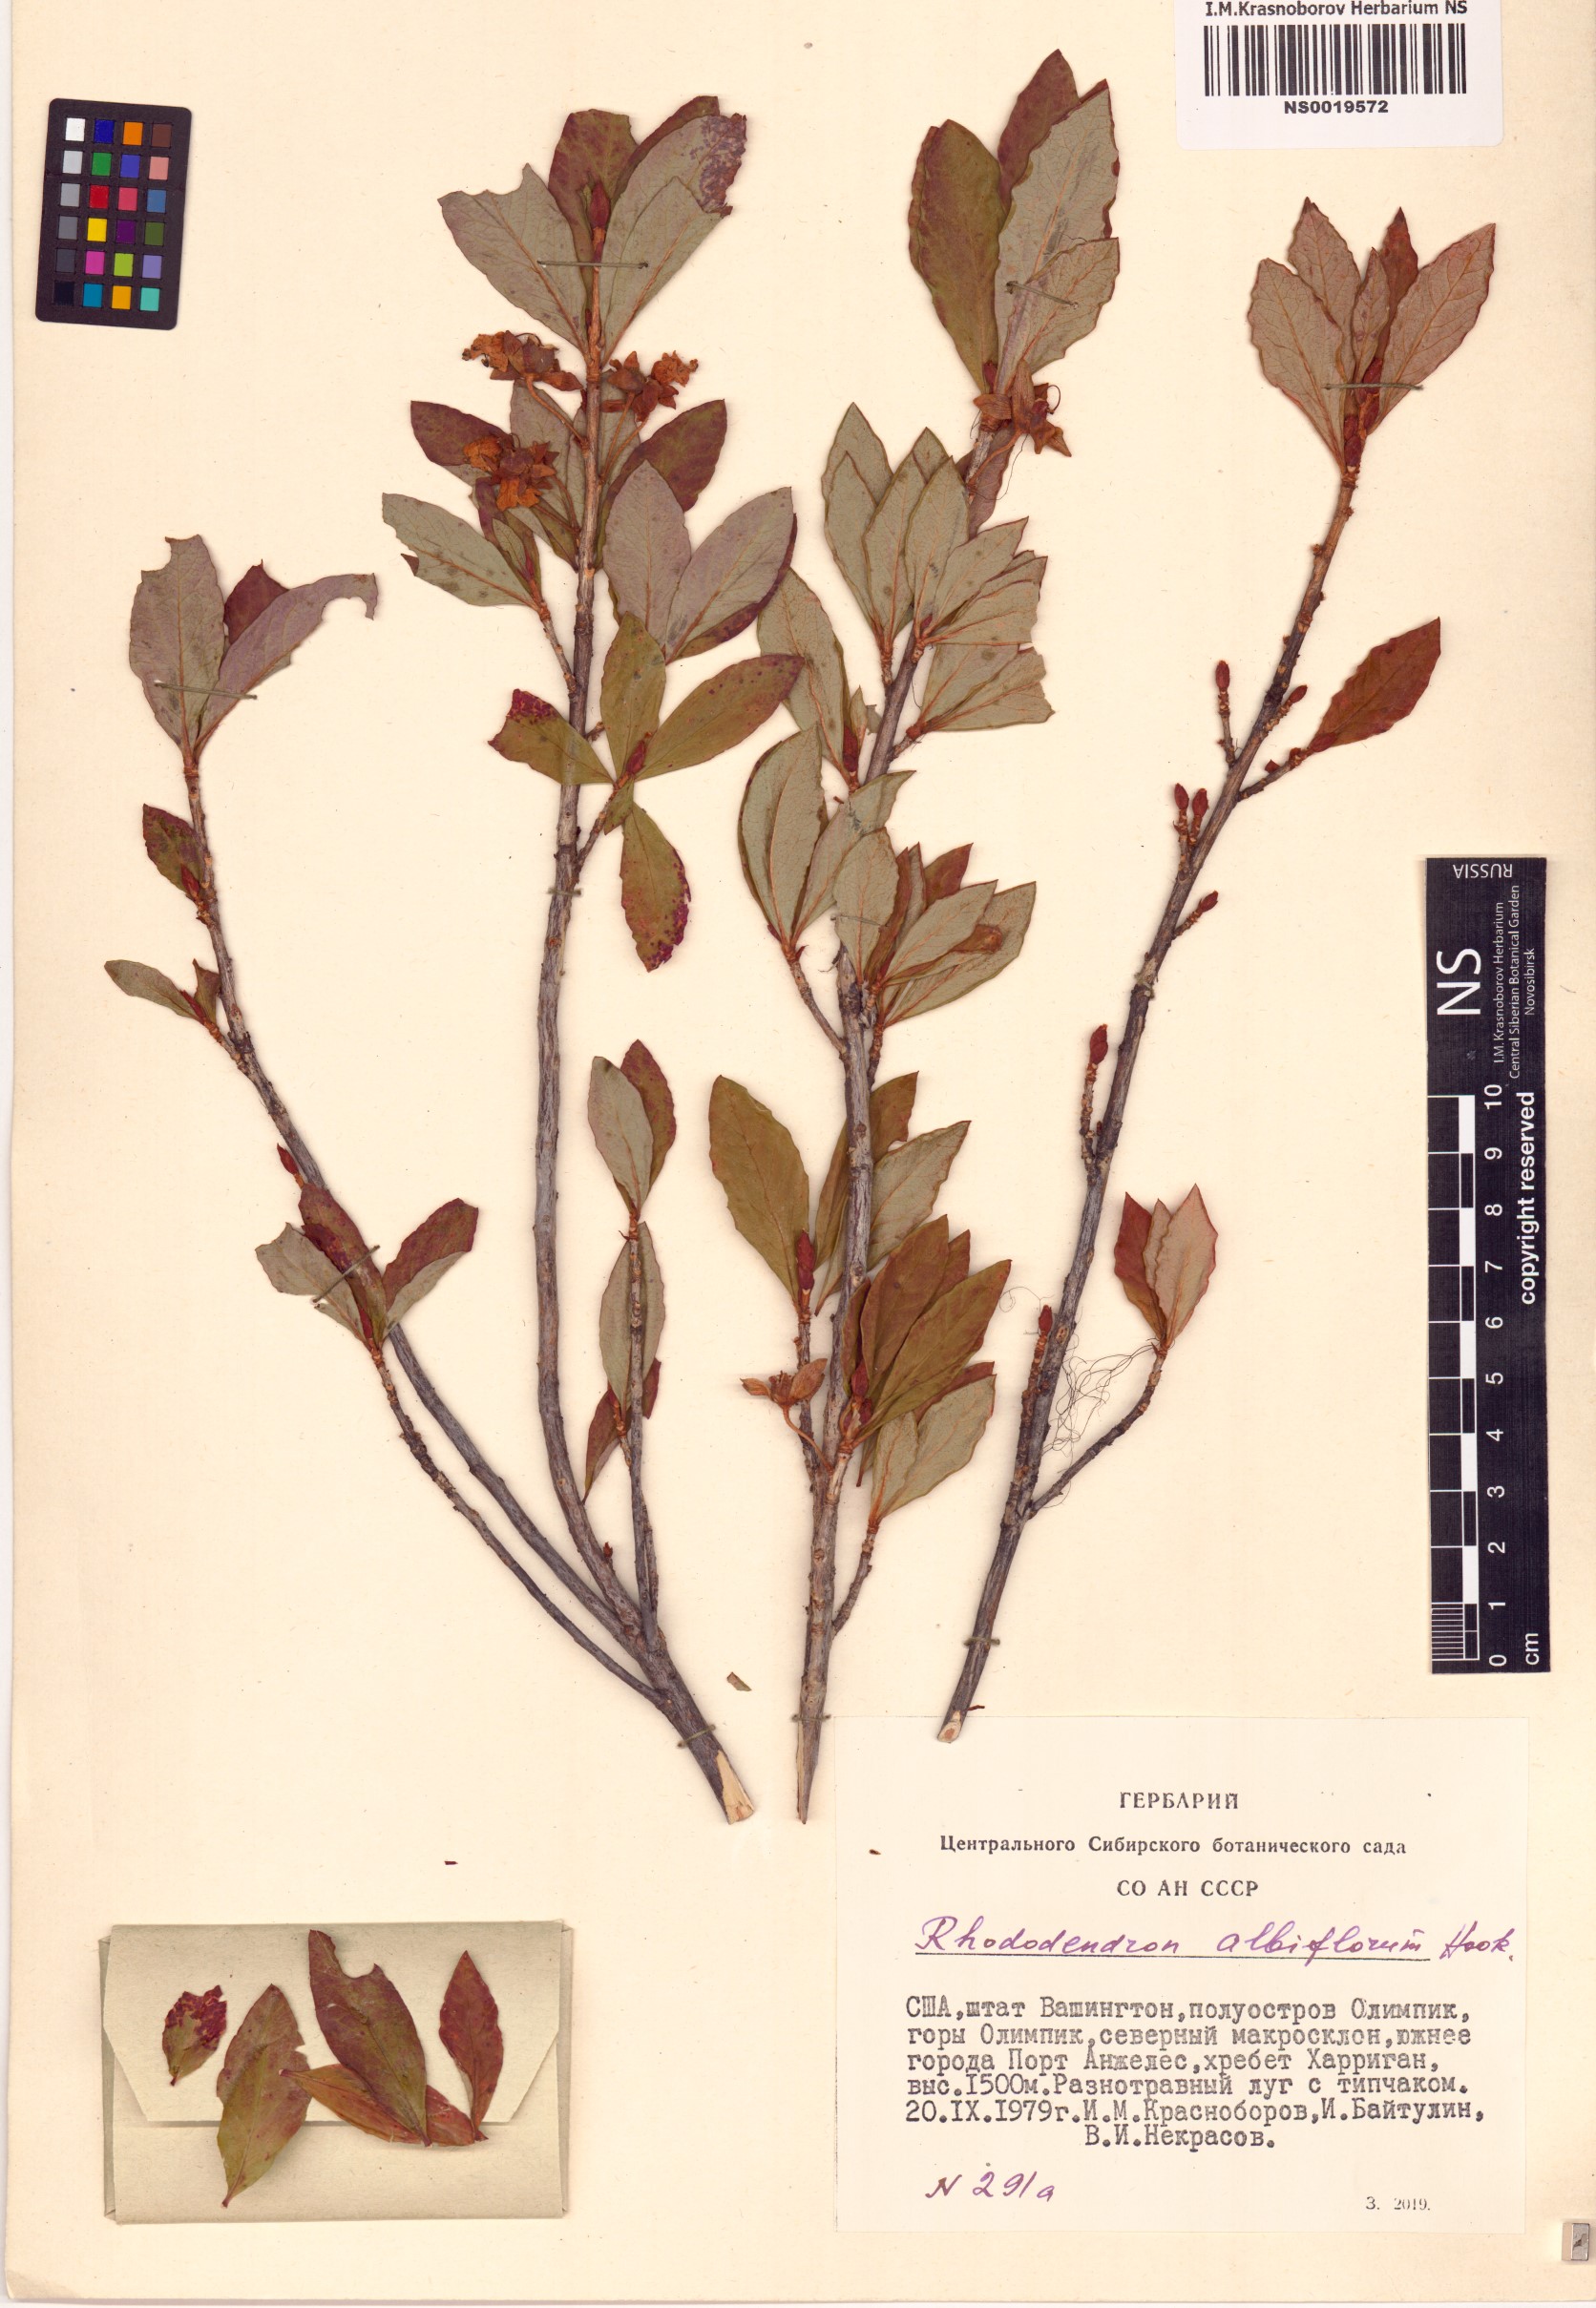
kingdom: Plantae
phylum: Tracheophyta
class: Magnoliopsida
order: Ericales
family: Ericaceae
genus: Rhododendron
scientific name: Rhododendron albiflorum
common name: White rhododendron
